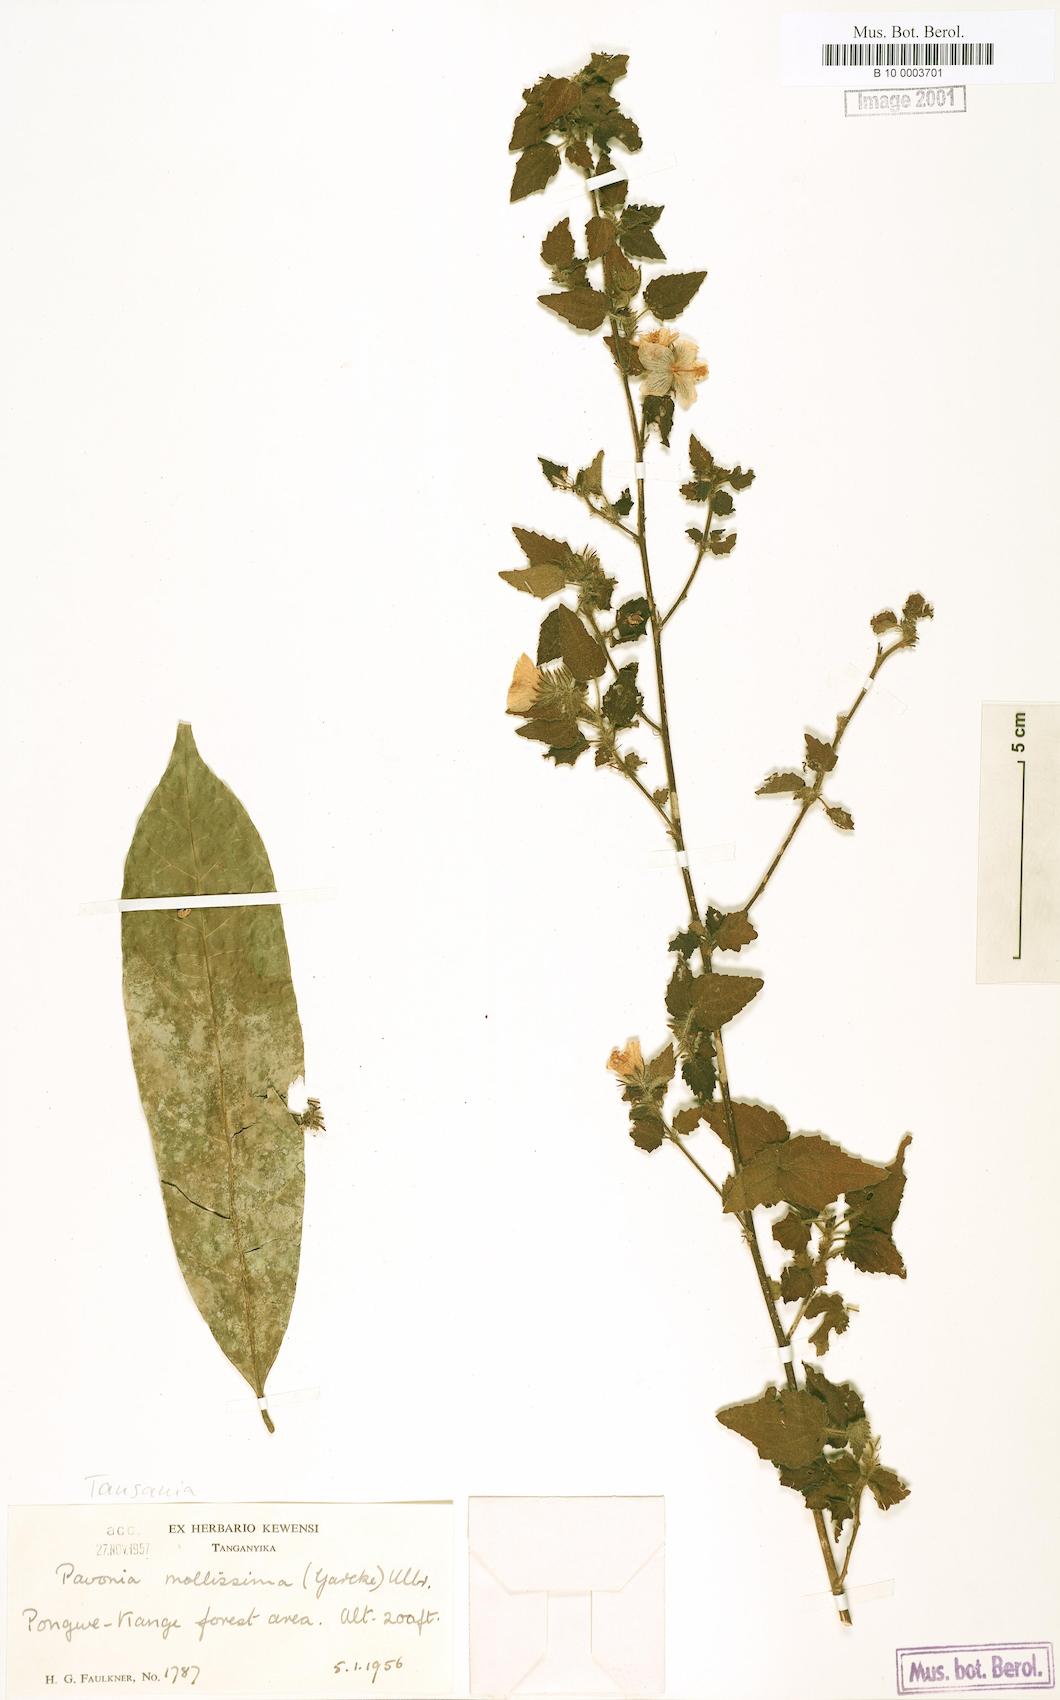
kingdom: Plantae
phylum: Tracheophyta
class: Magnoliopsida
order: Malvales
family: Malvaceae
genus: Pavonia
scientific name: Pavonia mollissima
